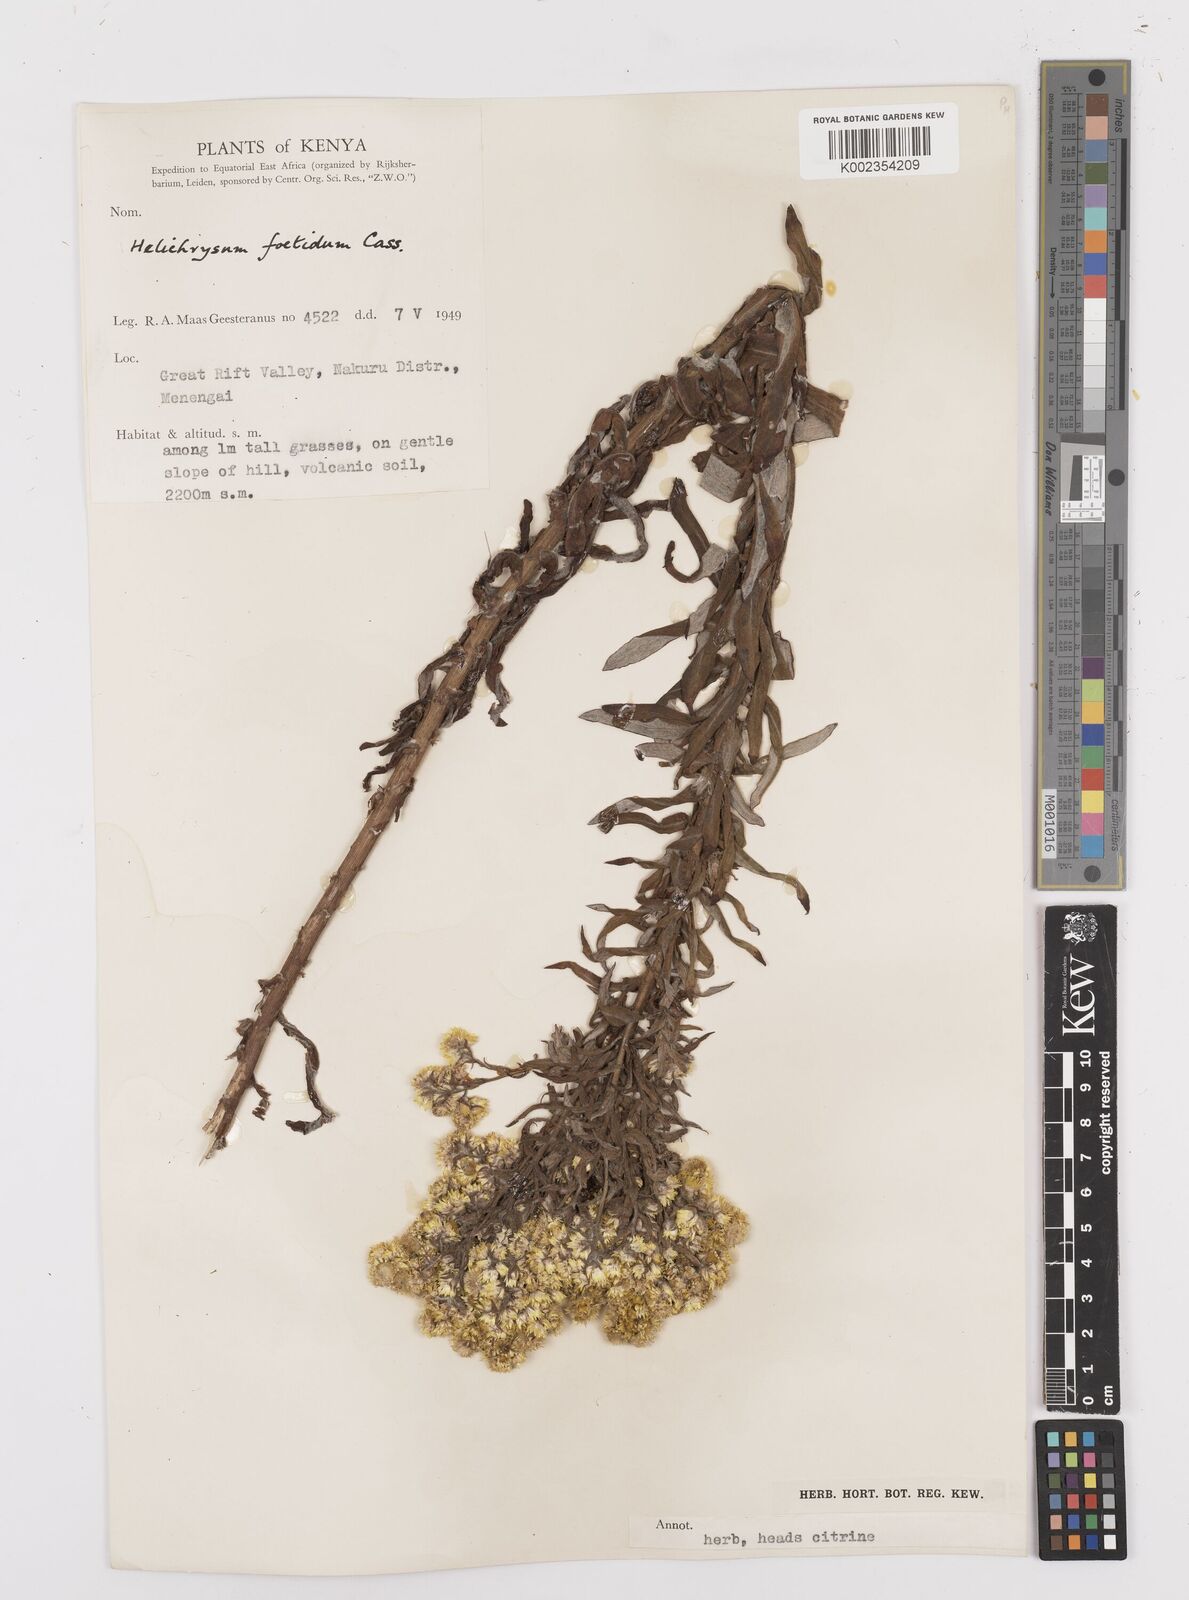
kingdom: Plantae
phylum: Tracheophyta
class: Magnoliopsida
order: Asterales
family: Asteraceae
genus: Helichrysum
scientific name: Helichrysum
